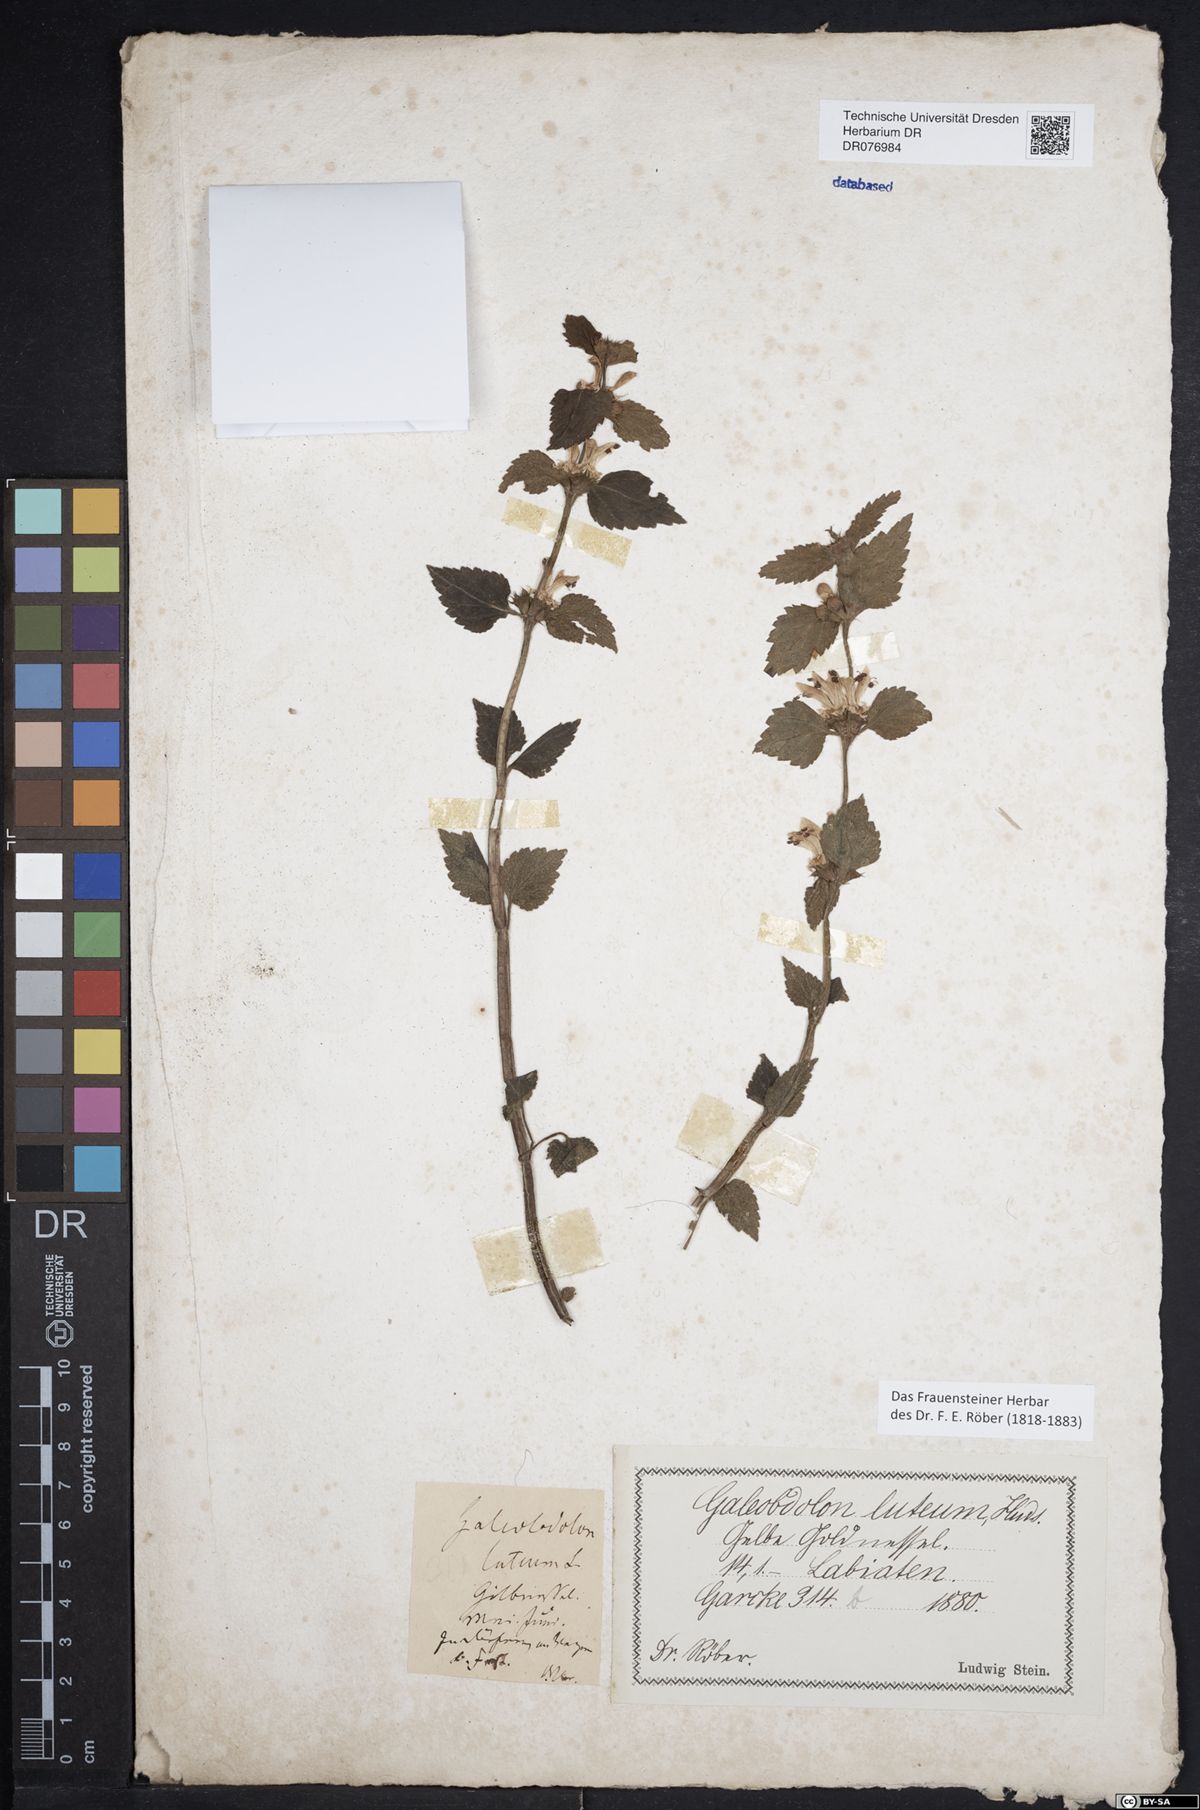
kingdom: Plantae
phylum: Tracheophyta
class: Magnoliopsida
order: Lamiales
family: Lamiaceae
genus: Lamium
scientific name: Lamium galeobdolon
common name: Yellow archangel
